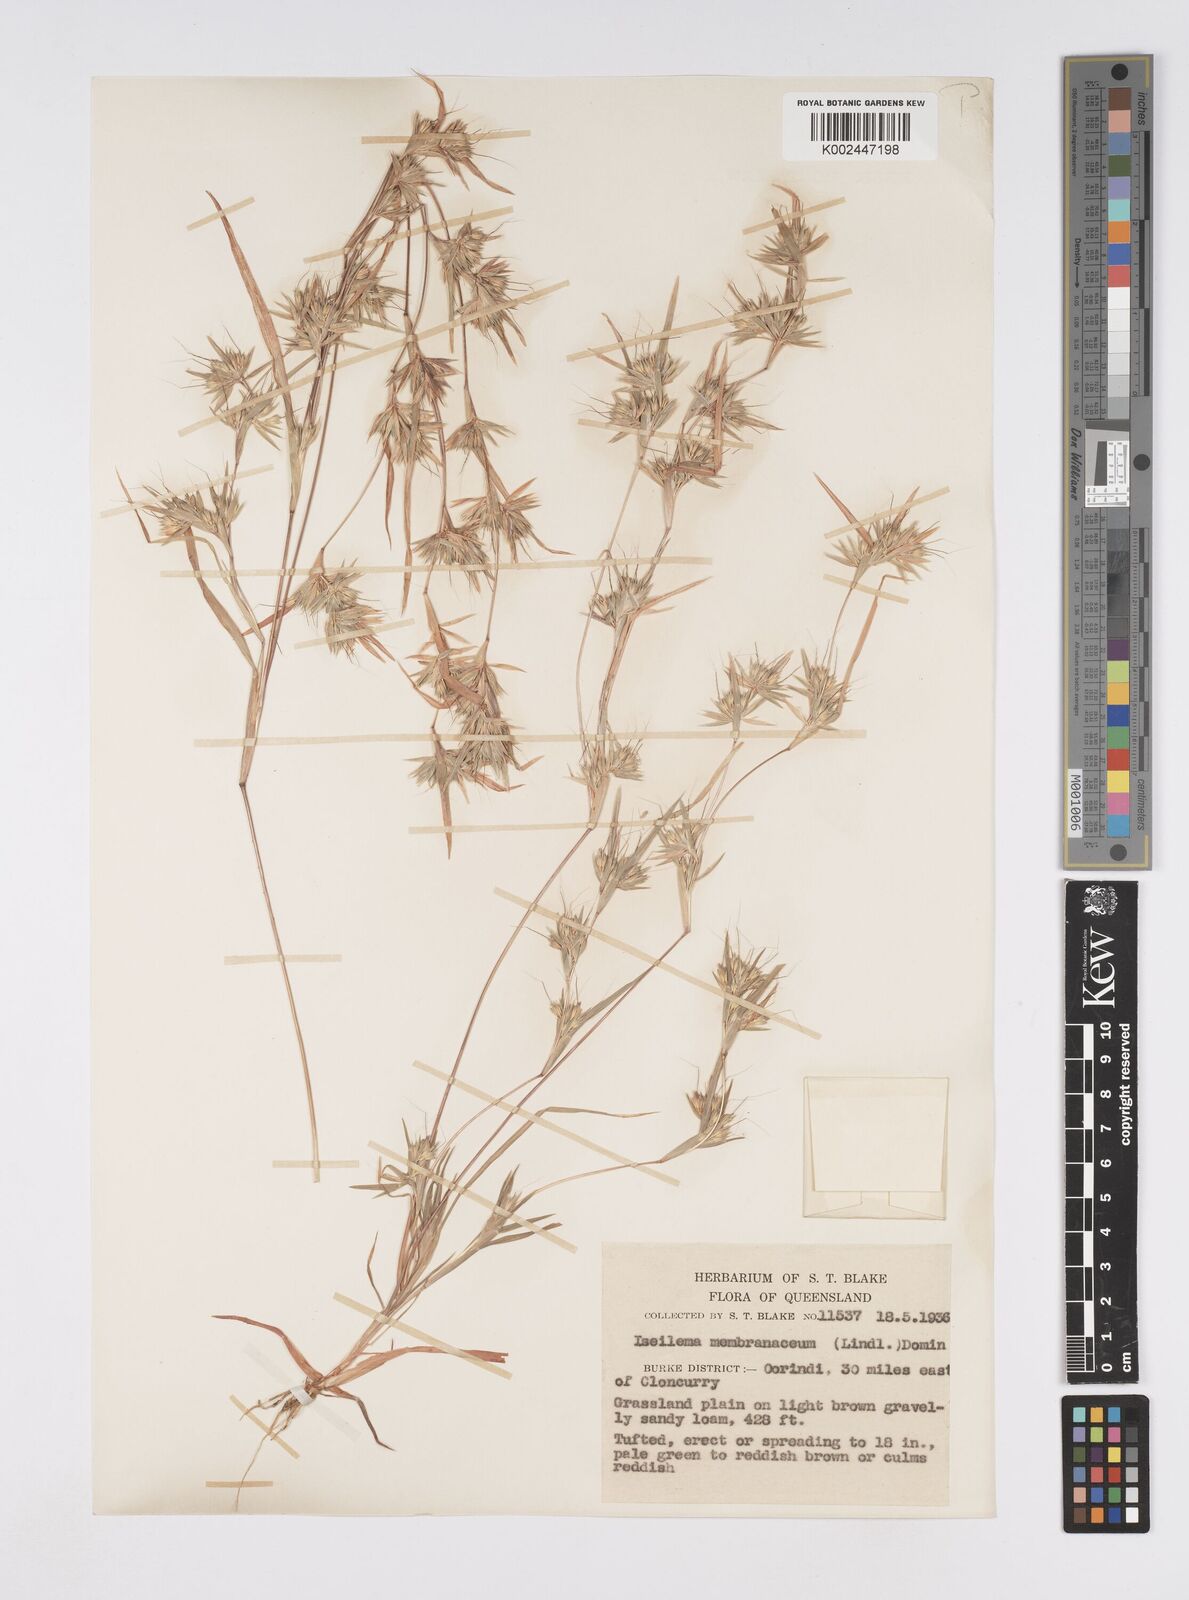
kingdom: Plantae
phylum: Tracheophyta
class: Liliopsida
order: Poales
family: Poaceae
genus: Iseilema
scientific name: Iseilema membranaceum
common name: Small flinders grass
